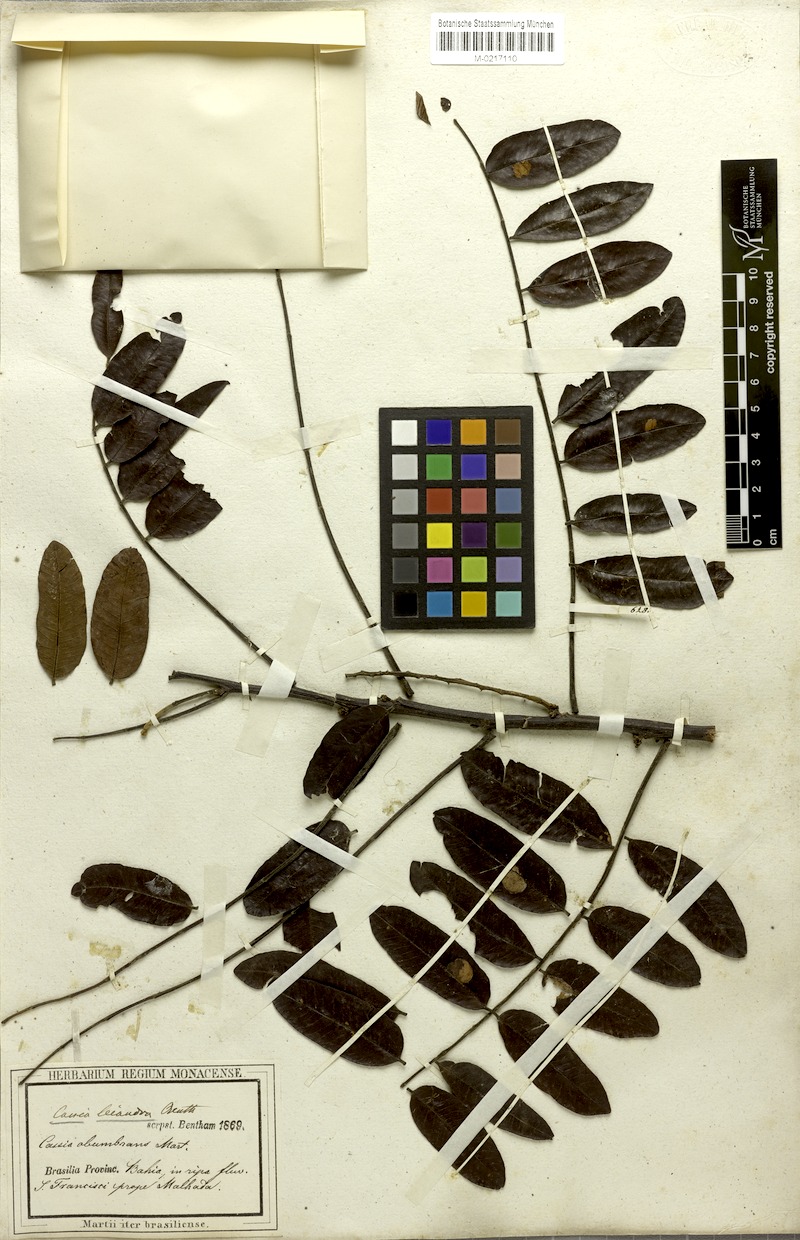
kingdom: Plantae
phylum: Tracheophyta
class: Magnoliopsida
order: Fabales
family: Fabaceae
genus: Cassia
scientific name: Cassia
